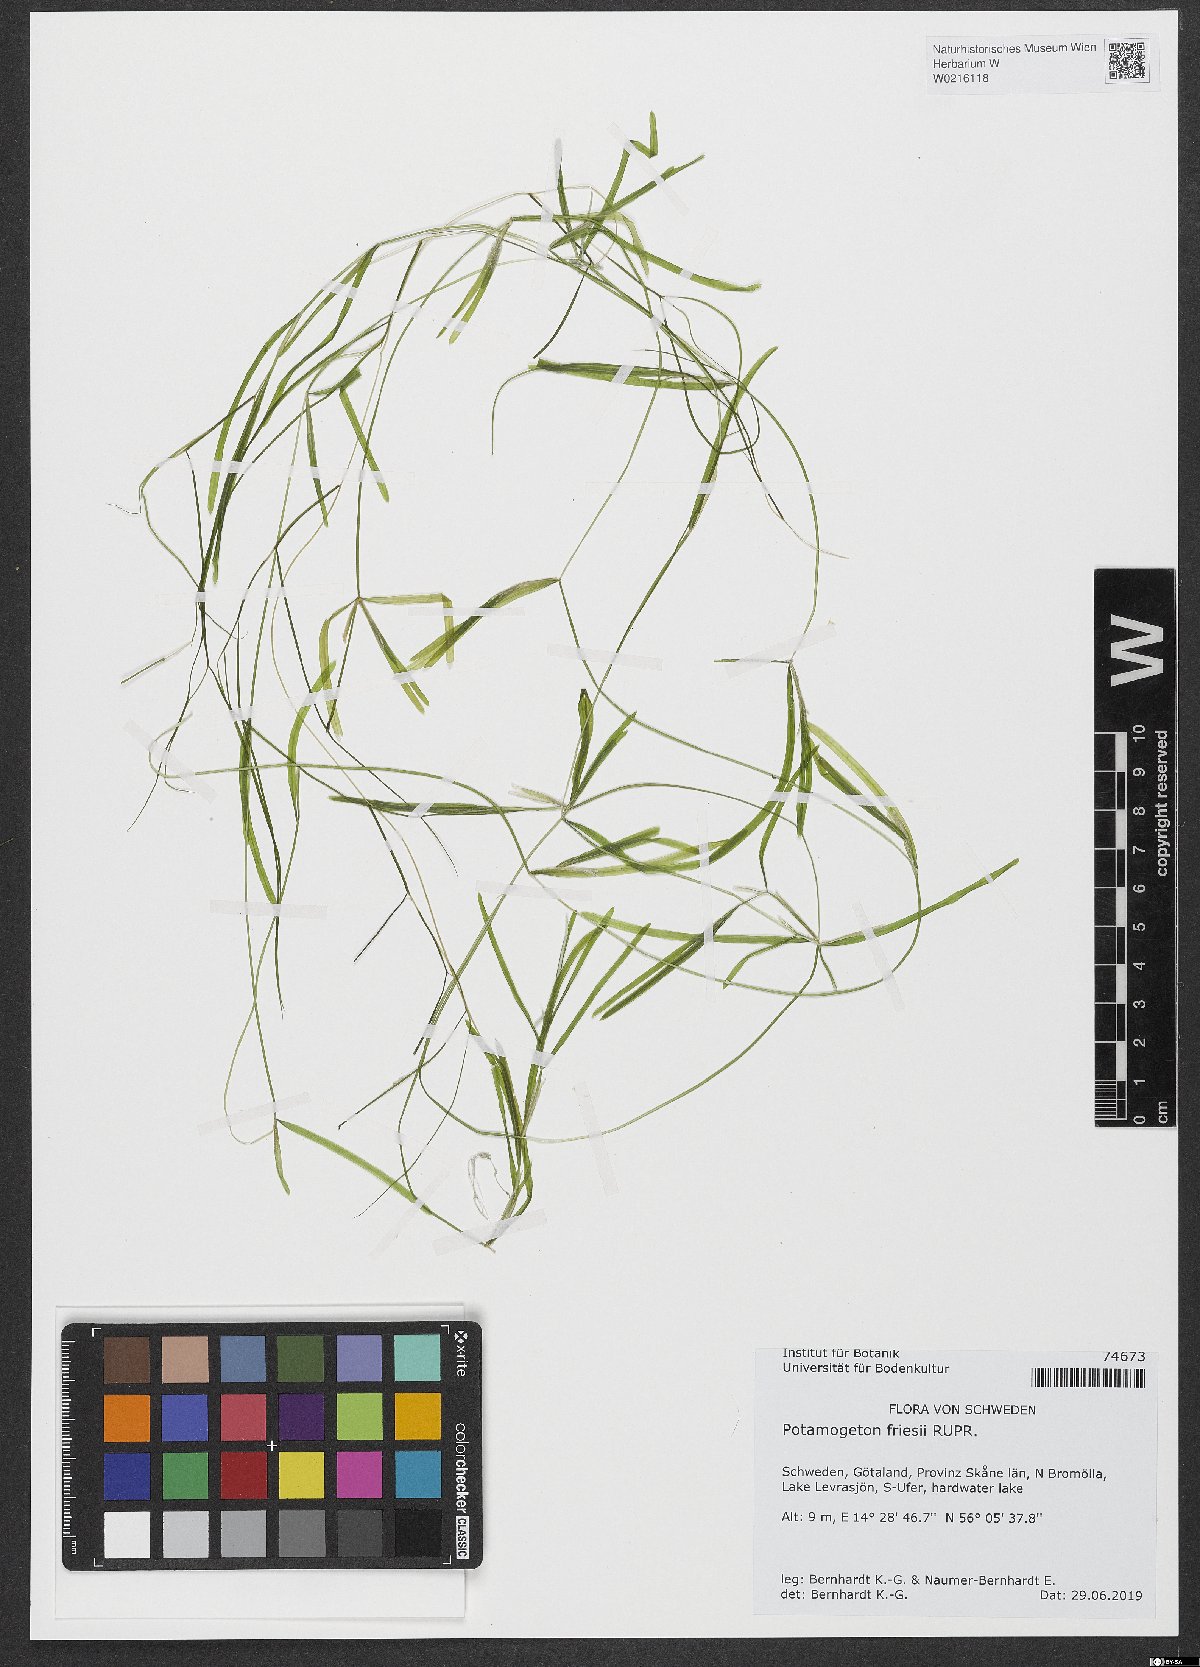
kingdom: Plantae
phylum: Tracheophyta
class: Liliopsida
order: Alismatales
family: Potamogetonaceae
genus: Potamogeton
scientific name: Potamogeton friesii
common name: Flat-stalked pondweed
